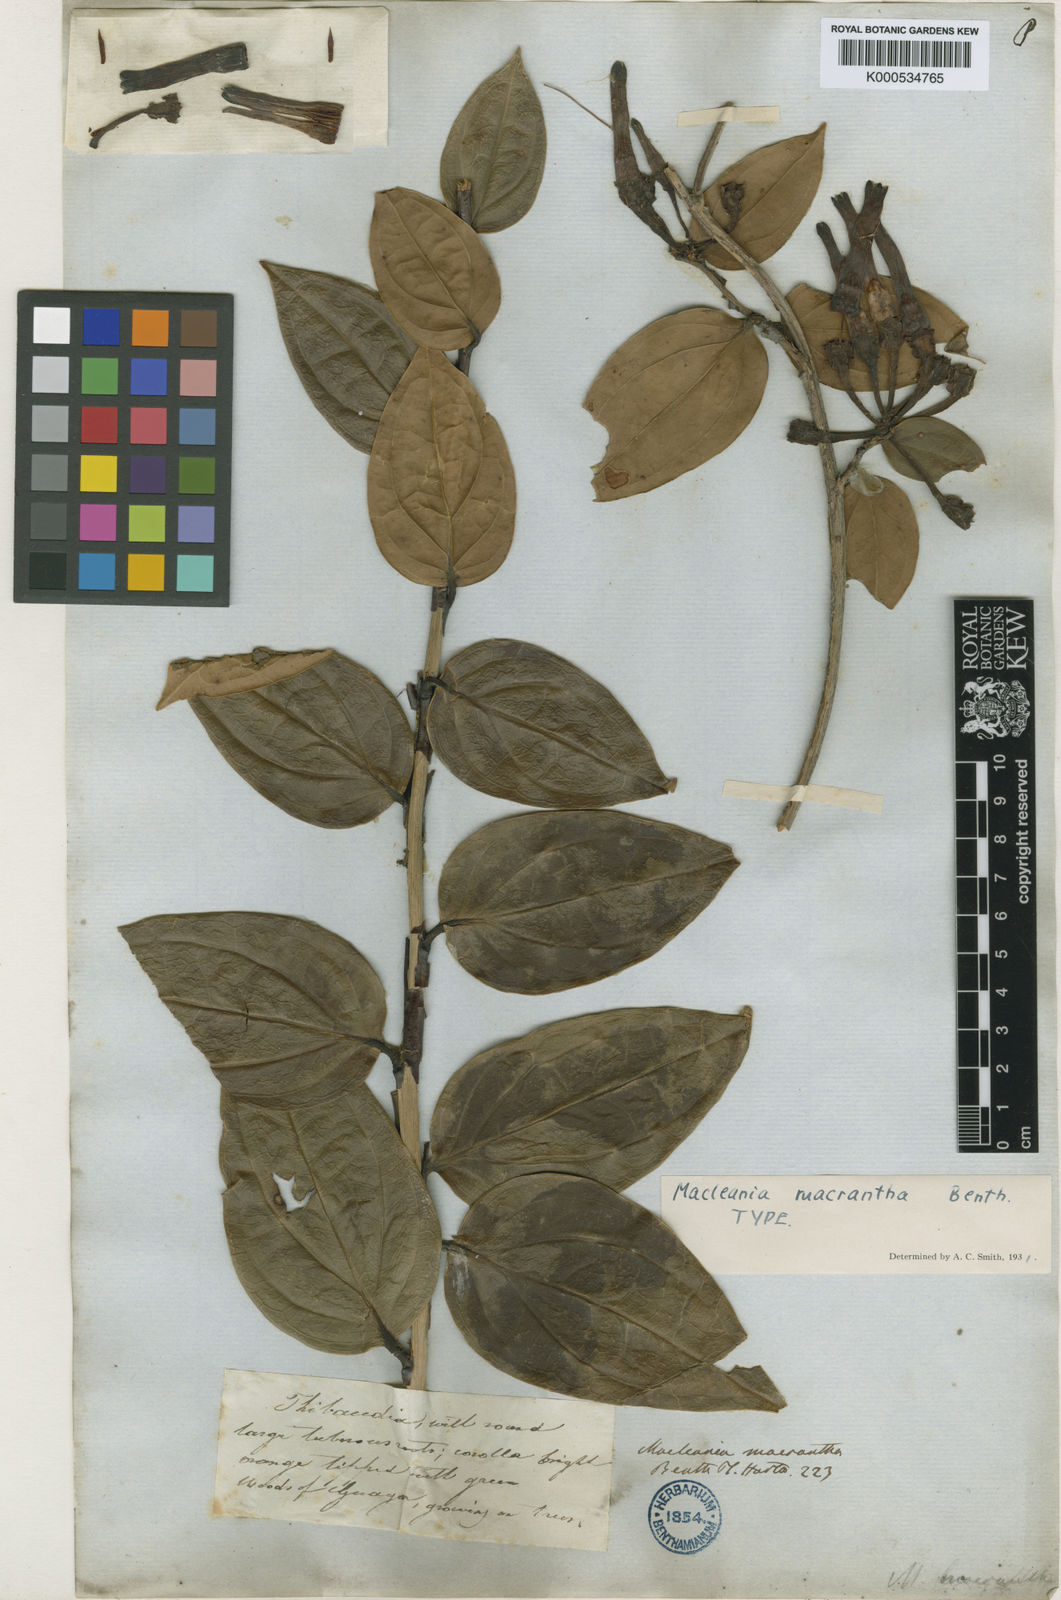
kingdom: Plantae
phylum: Tracheophyta
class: Magnoliopsida
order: Ericales
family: Ericaceae
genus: Macleania
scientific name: Macleania macrantha
